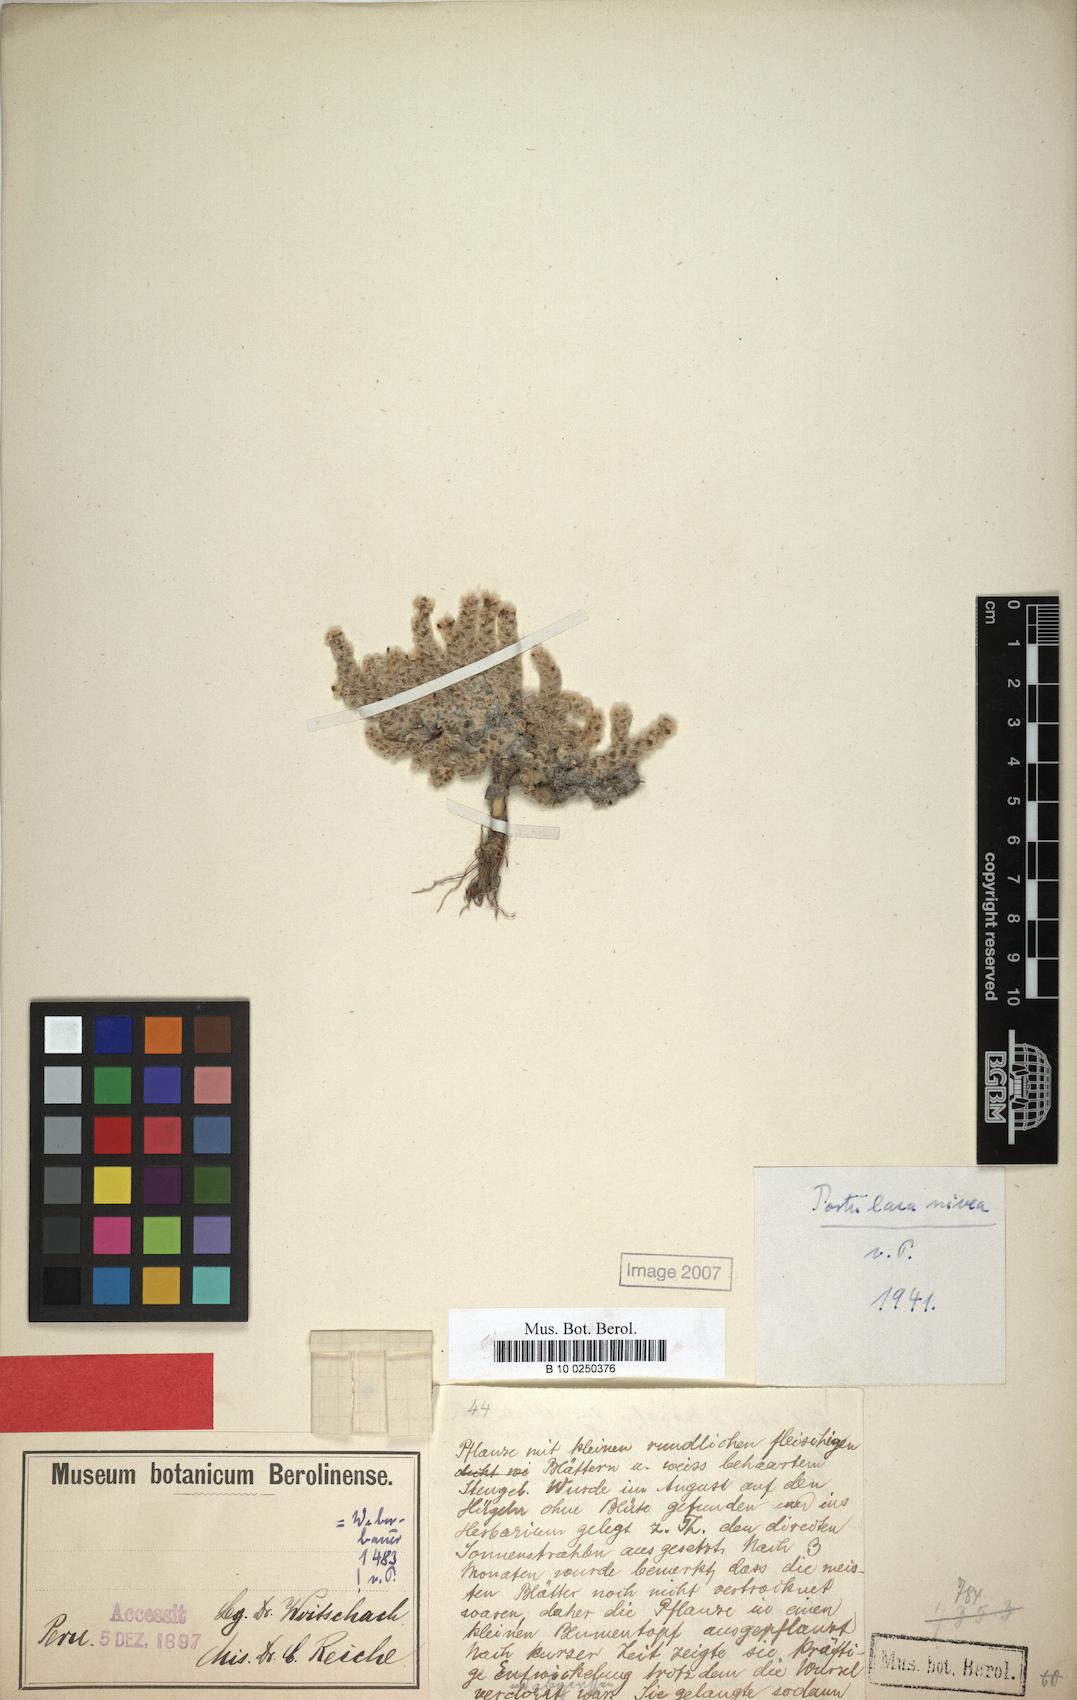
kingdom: Plantae
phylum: Tracheophyta
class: Magnoliopsida
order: Caryophyllales
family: Portulacaceae
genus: Portulaca
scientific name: Portulaca nivea
